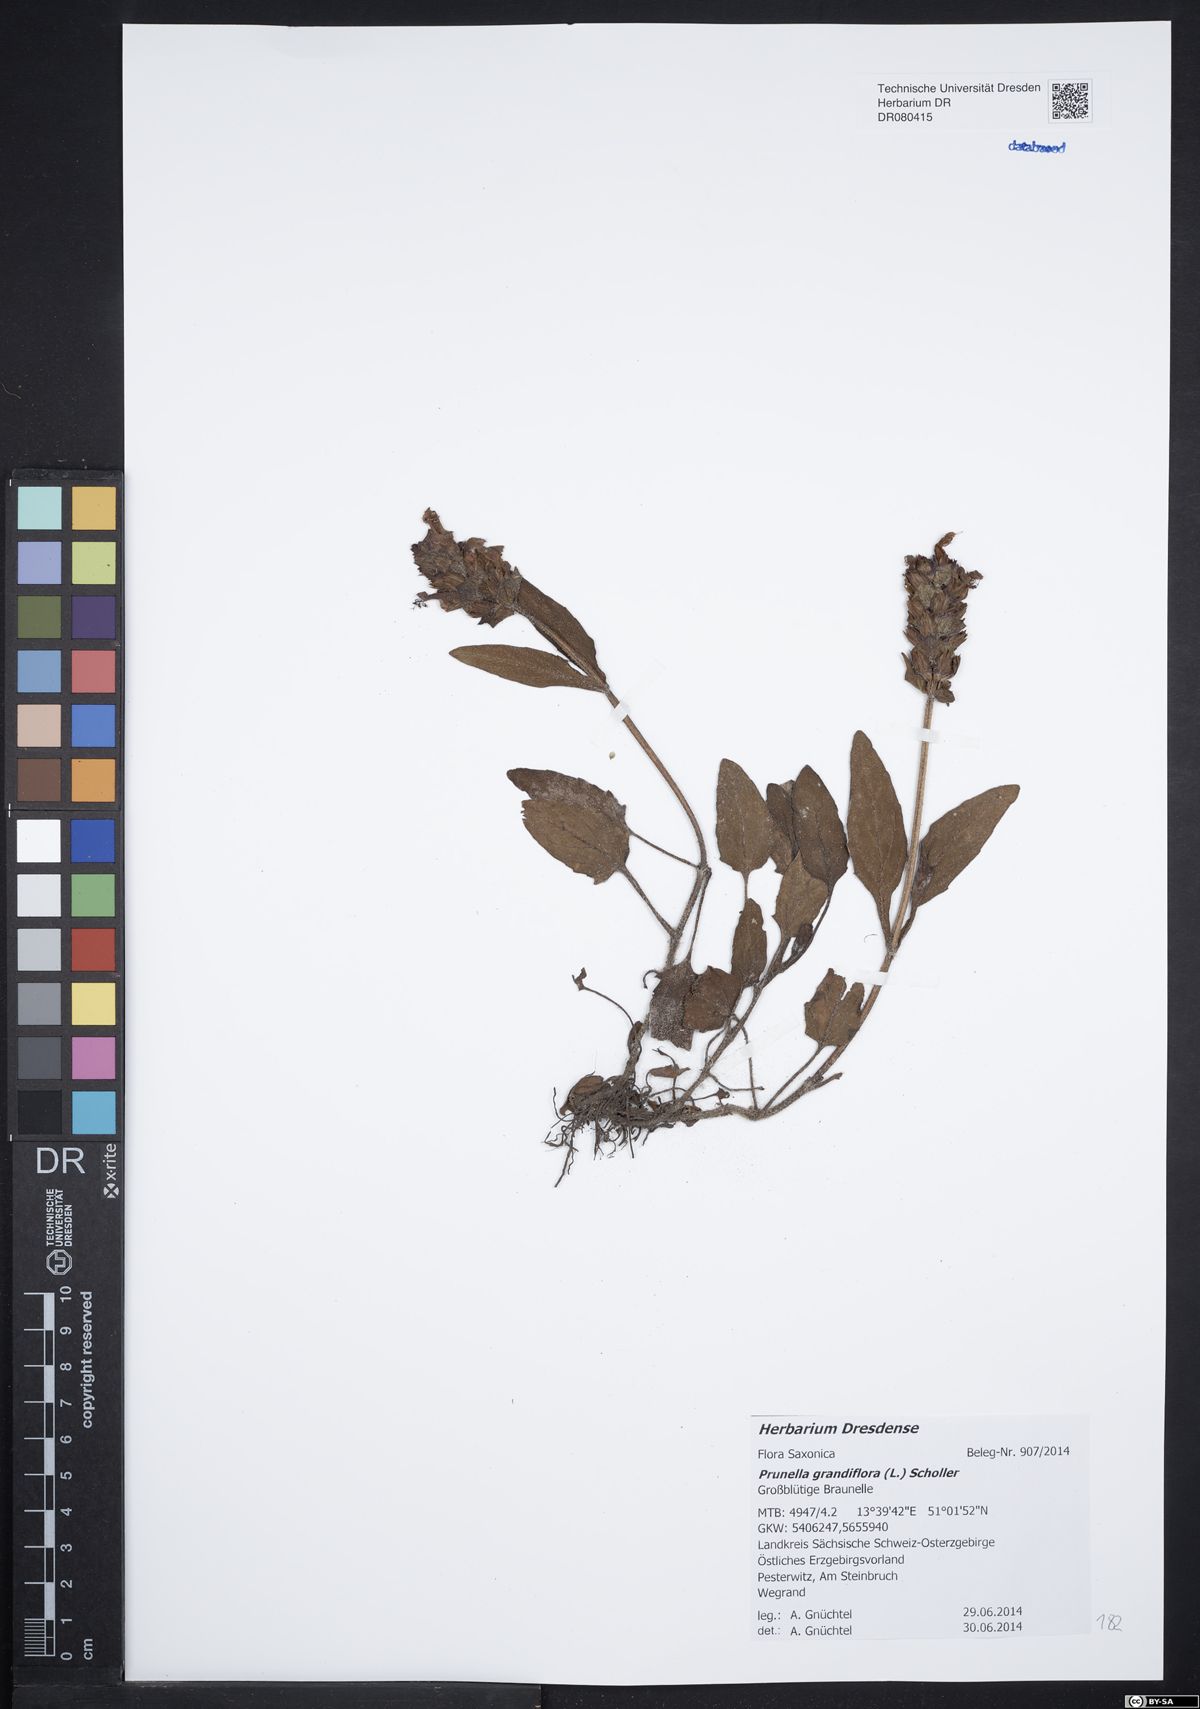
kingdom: Plantae
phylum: Tracheophyta
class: Magnoliopsida
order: Lamiales
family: Lamiaceae
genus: Prunella
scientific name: Prunella grandiflora
